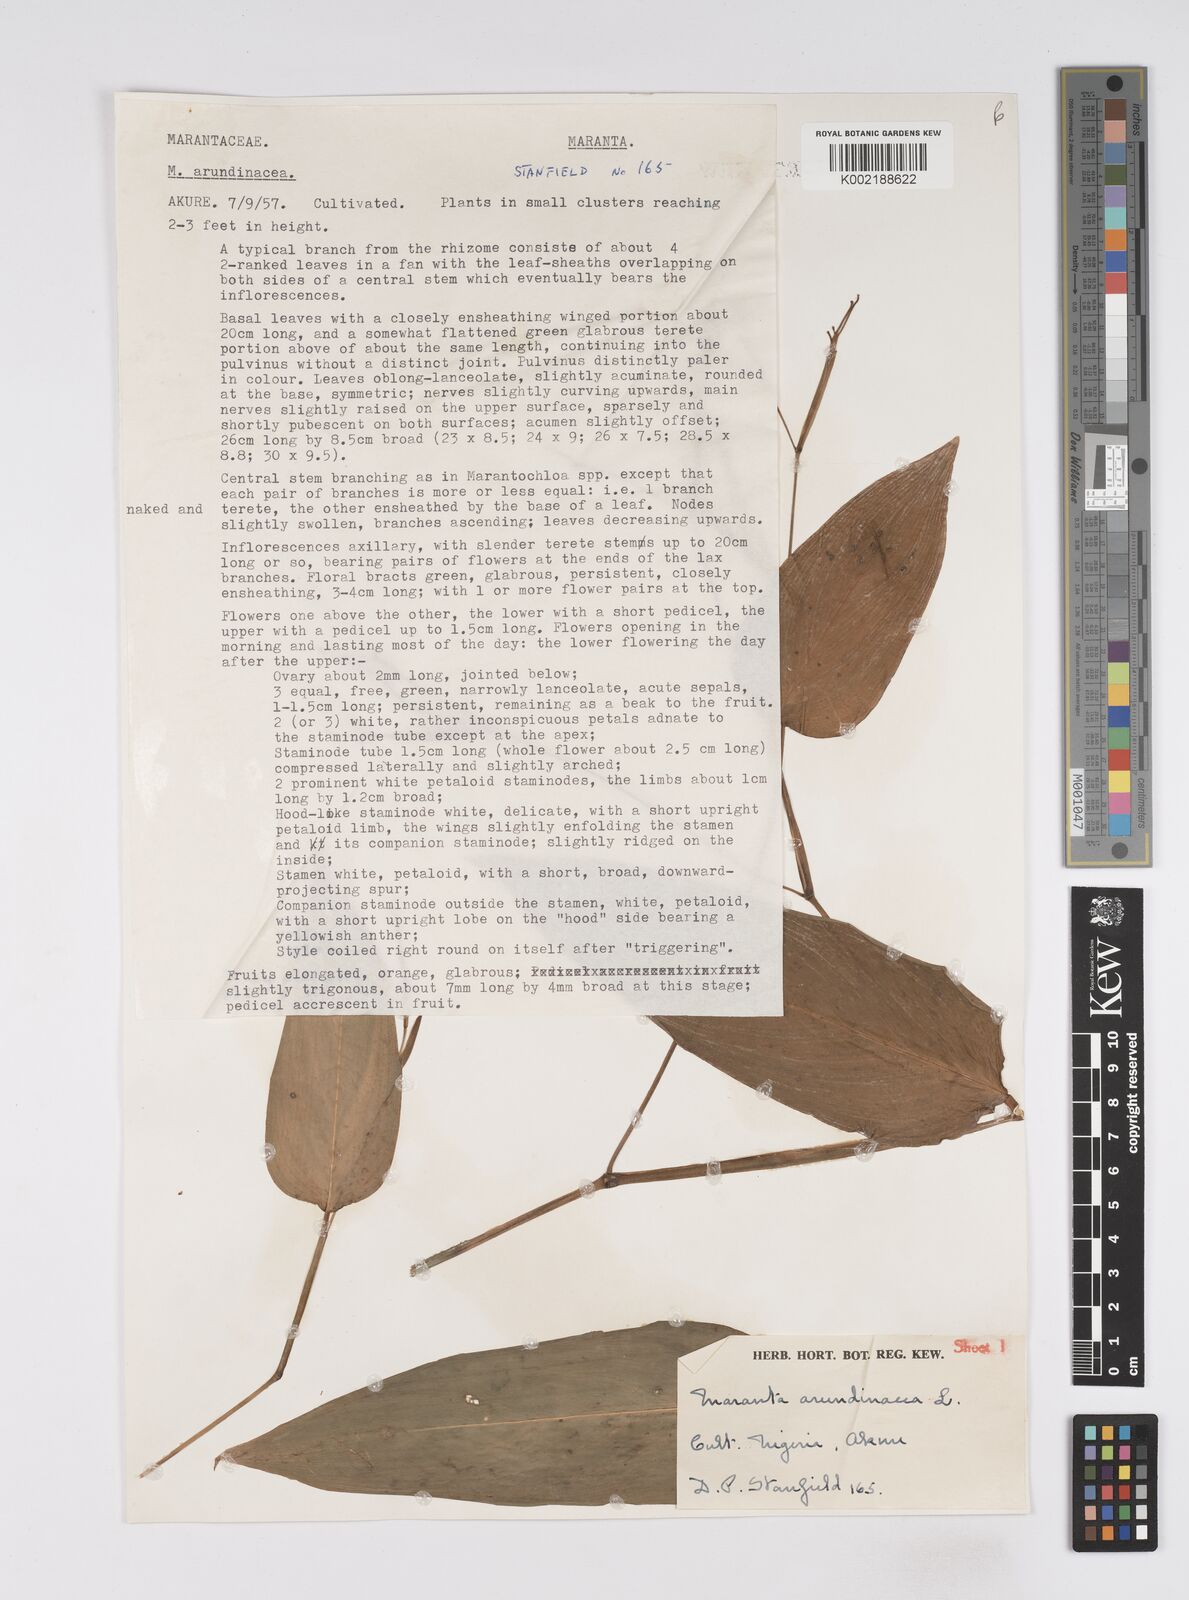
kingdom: Plantae
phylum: Tracheophyta
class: Liliopsida
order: Zingiberales
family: Marantaceae
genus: Maranta
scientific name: Maranta arundinacea
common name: Arrowroot
